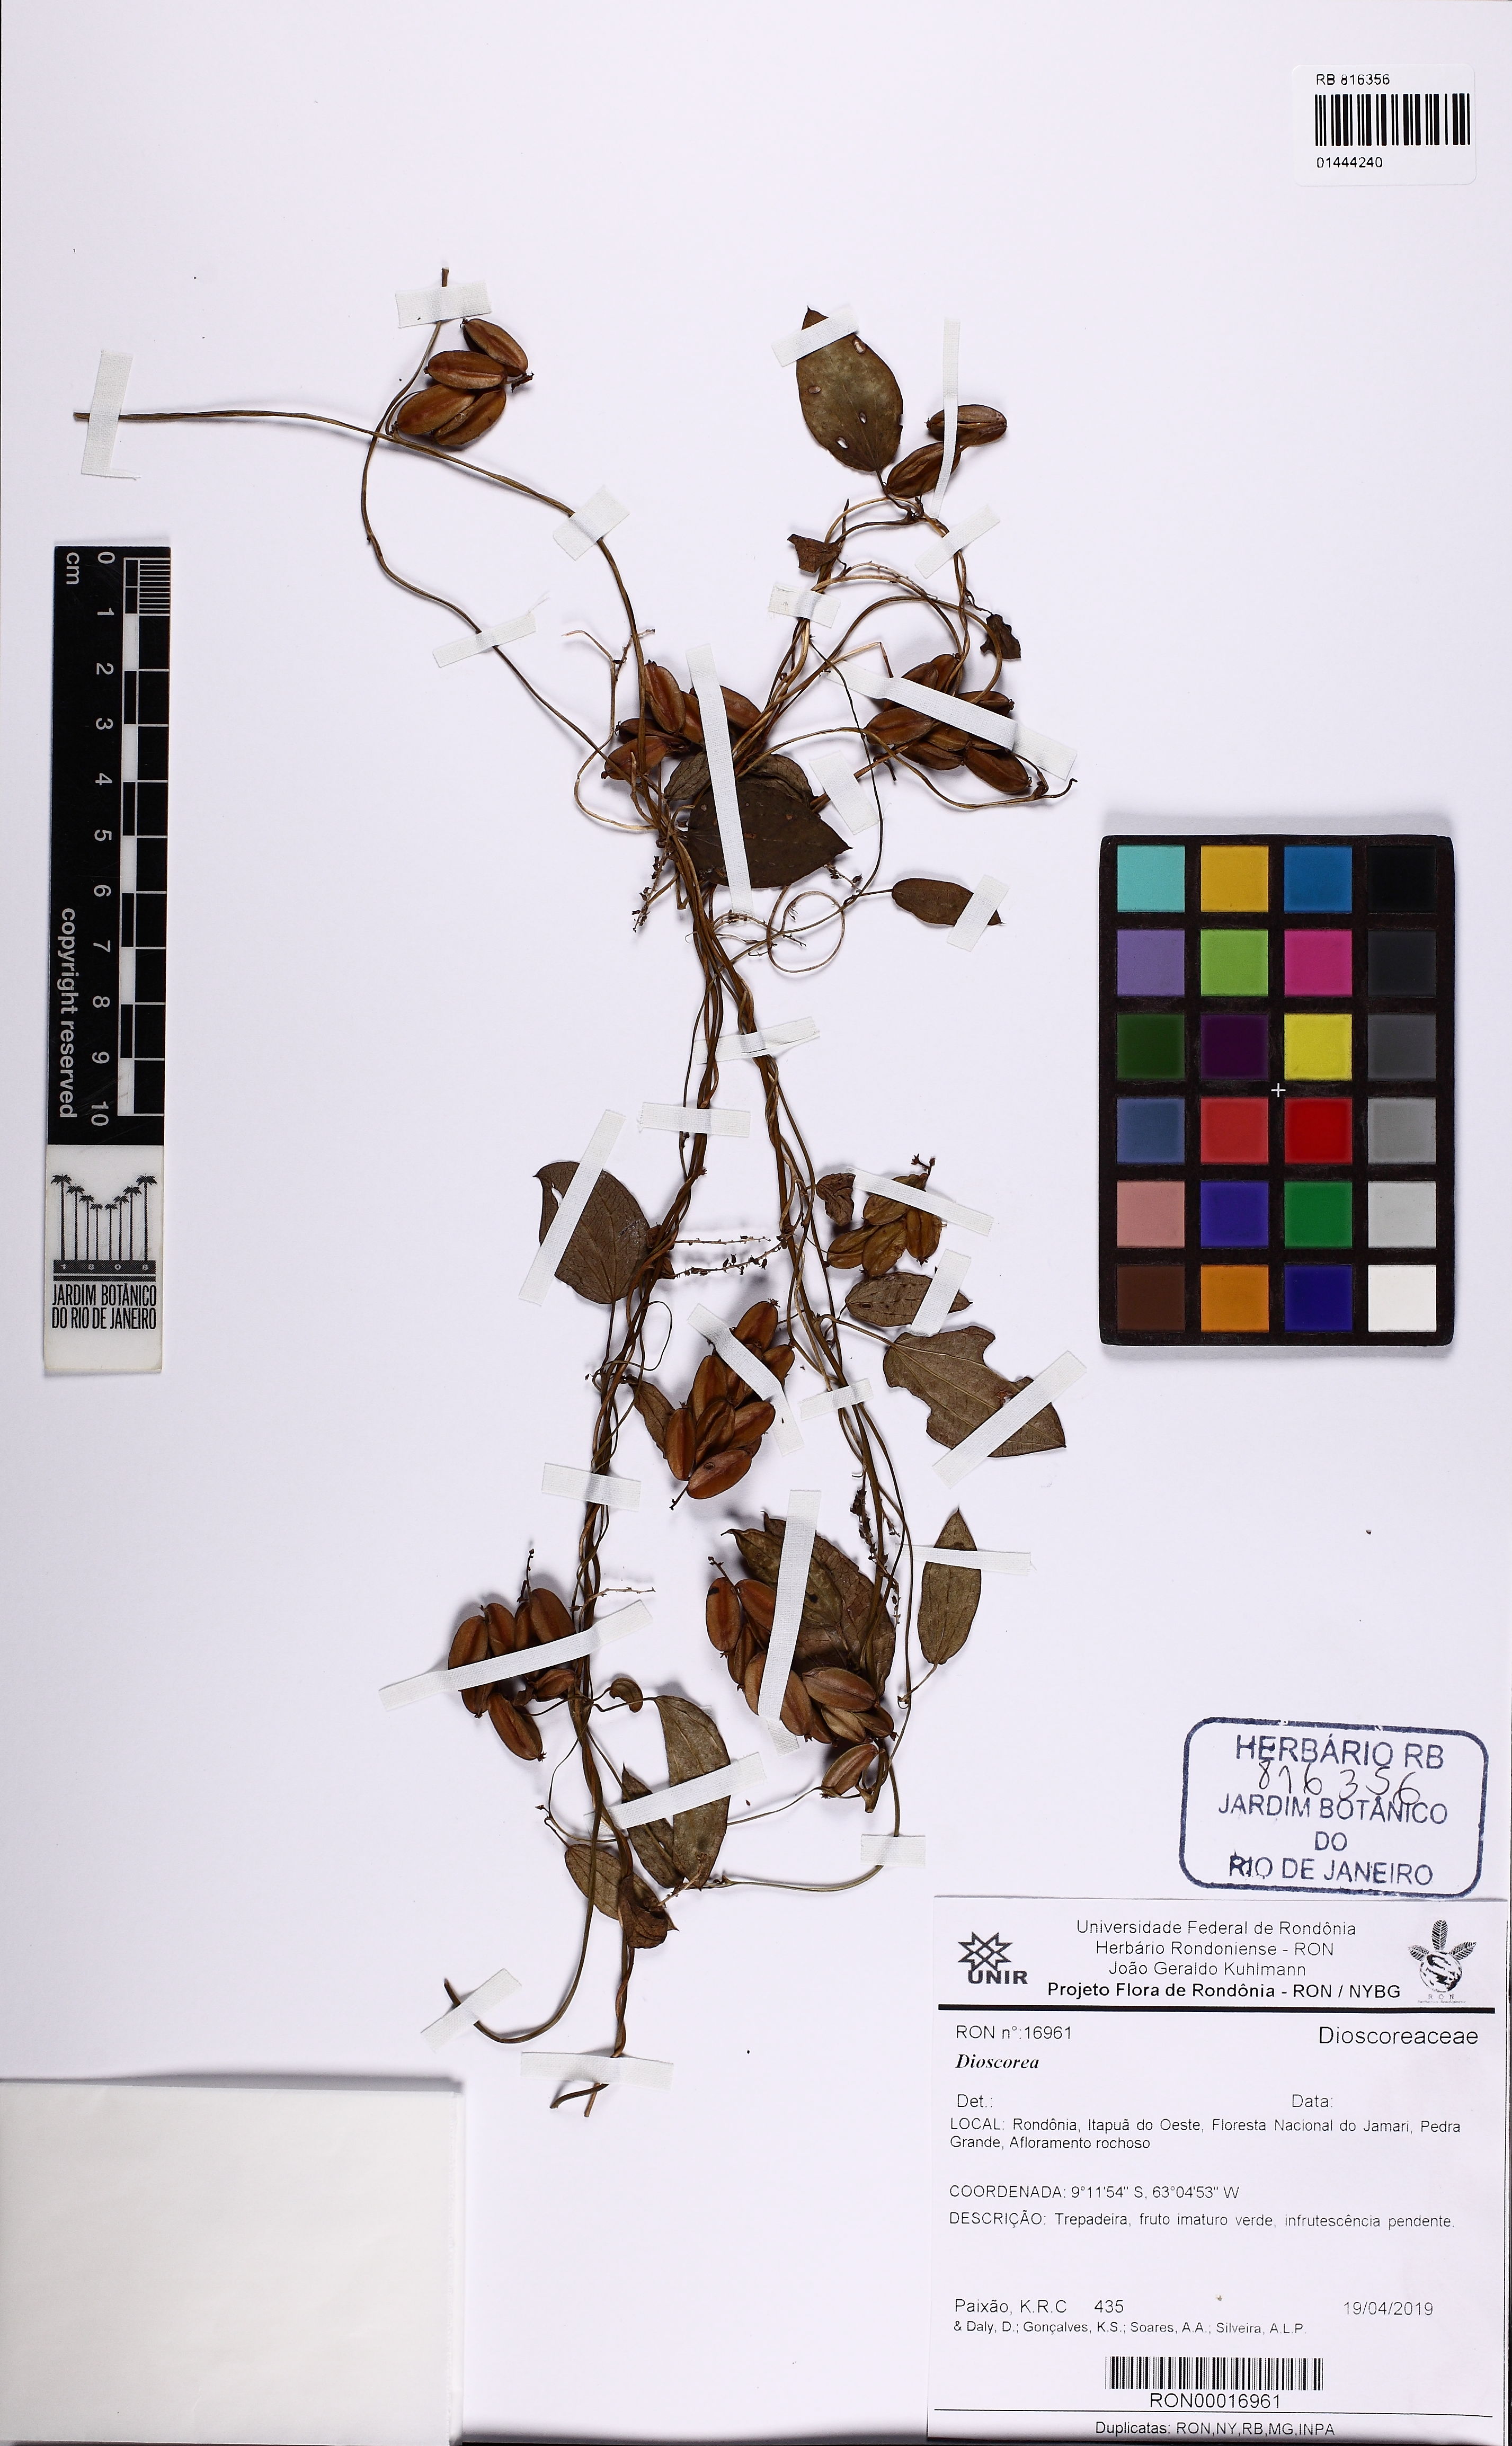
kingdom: Plantae
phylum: Tracheophyta
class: Liliopsida
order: Dioscoreales
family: Dioscoreaceae
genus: Dioscorea
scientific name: Dioscorea
